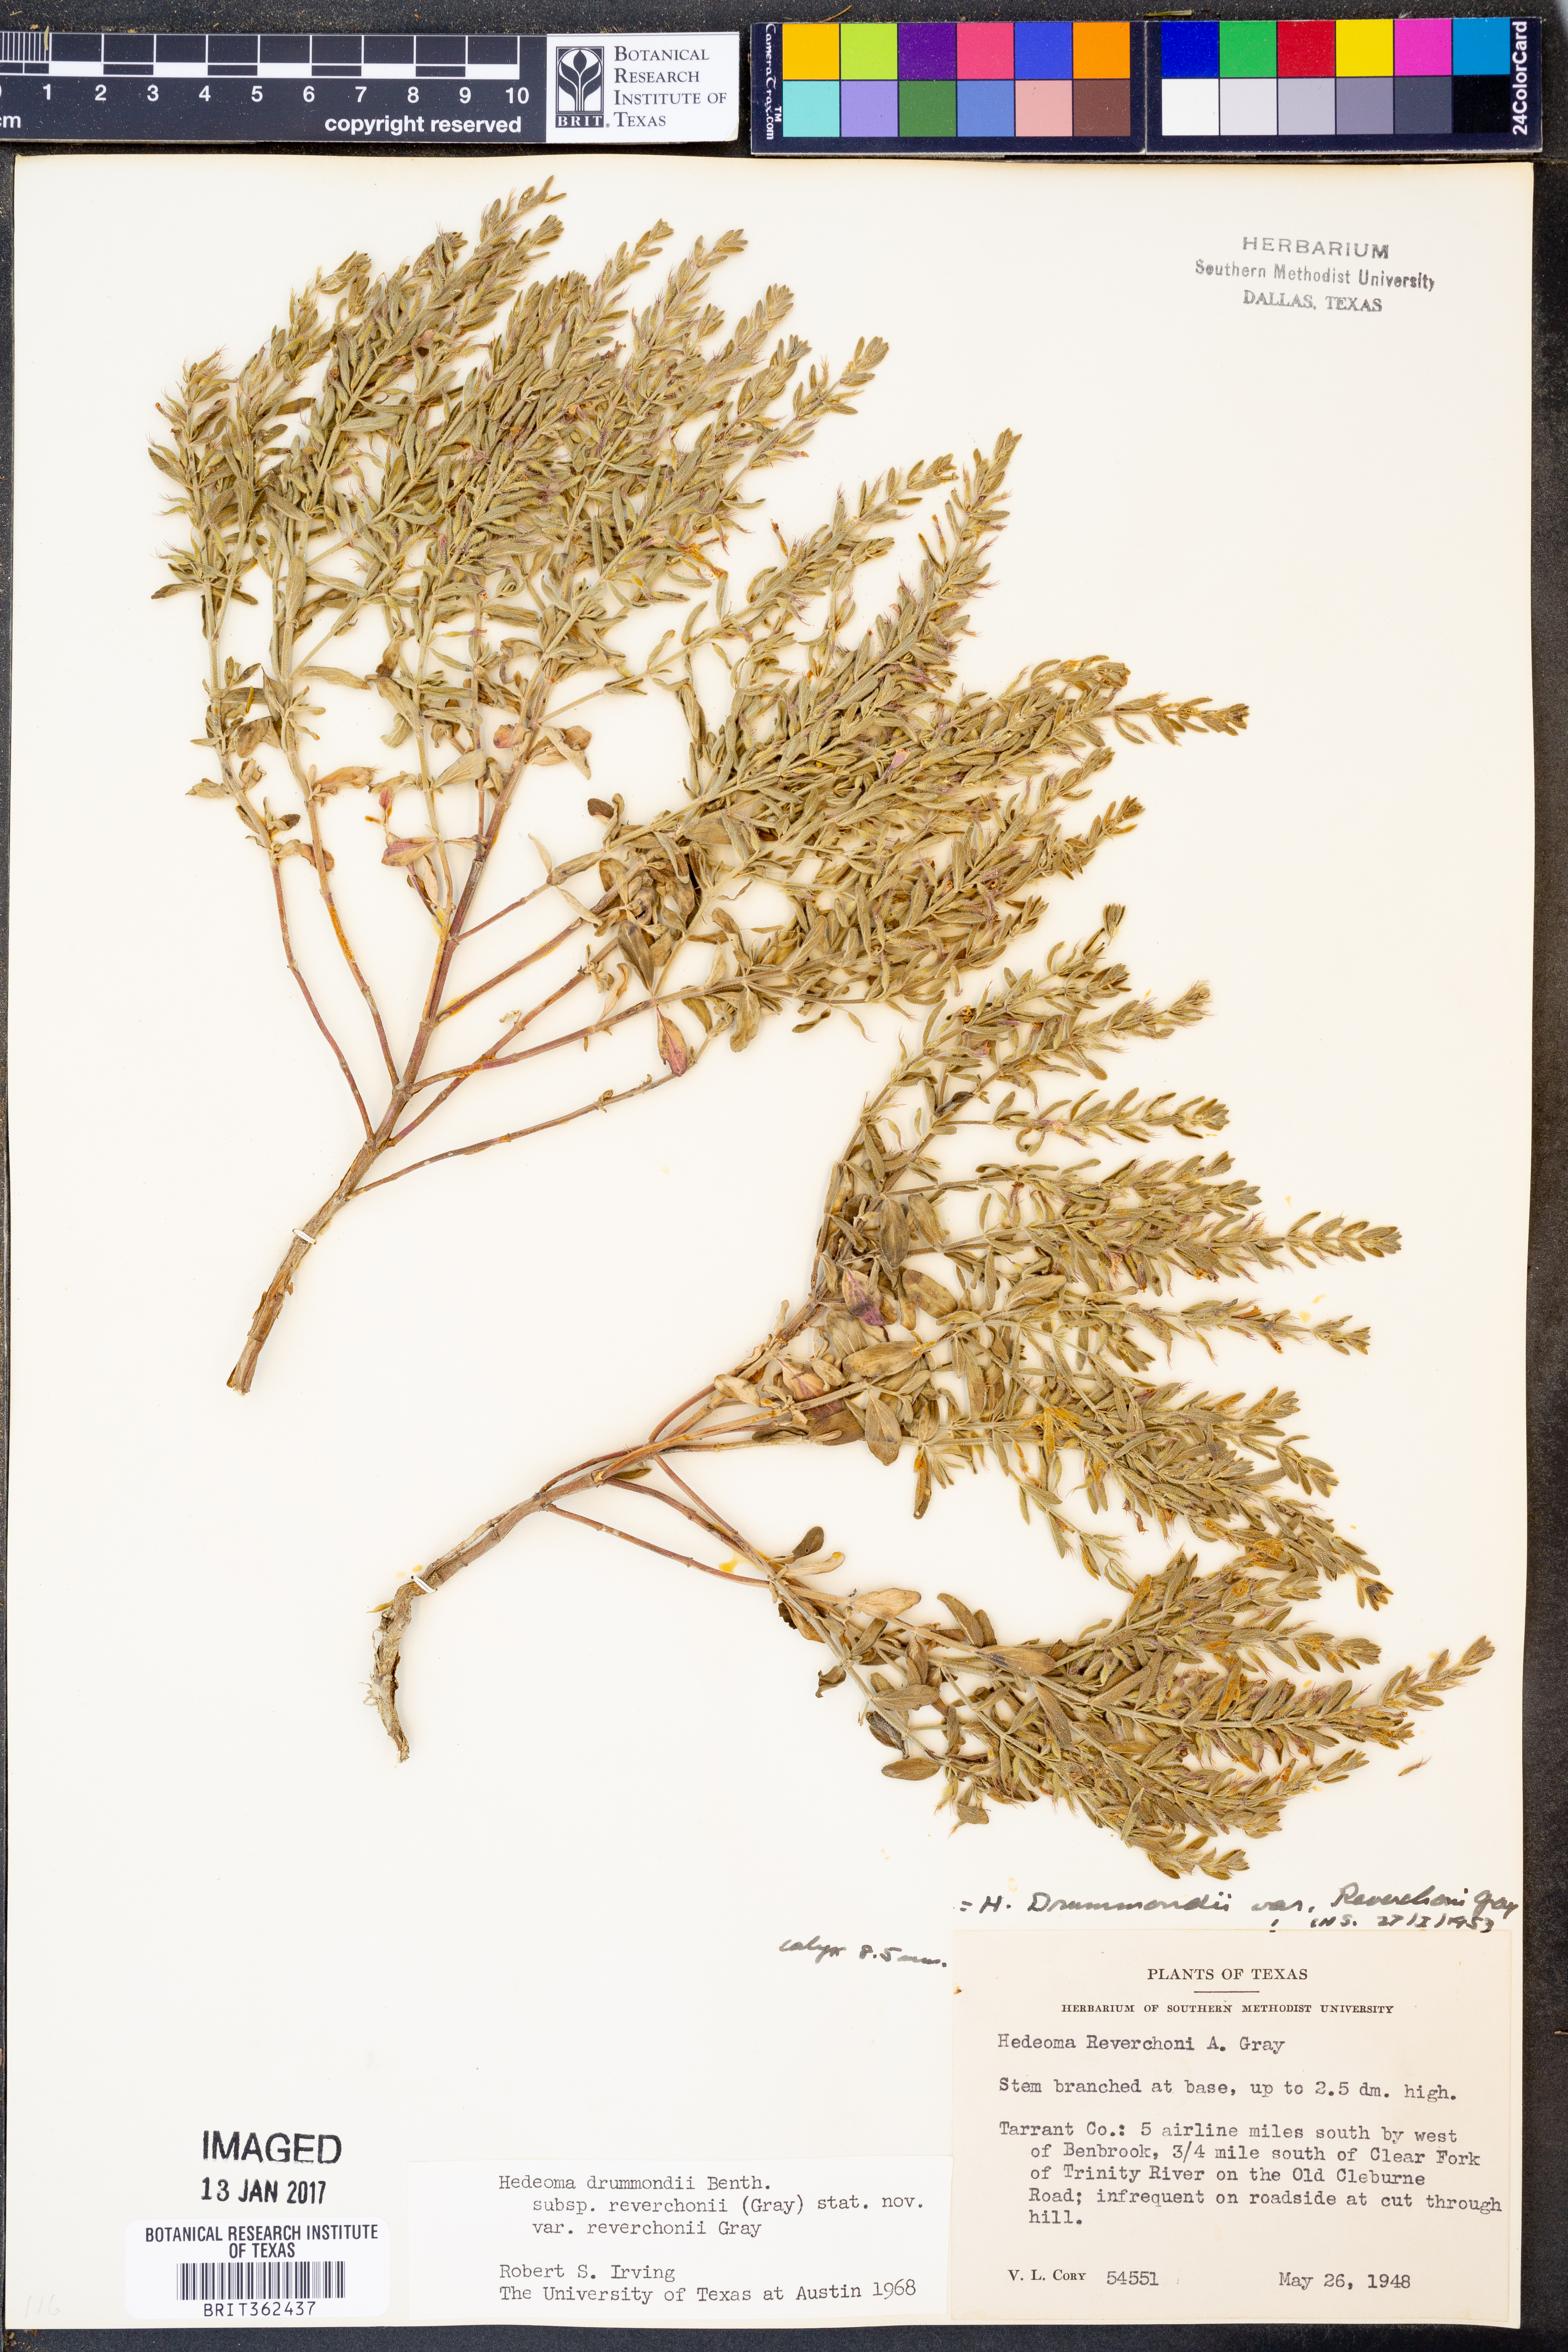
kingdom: Plantae
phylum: Tracheophyta
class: Magnoliopsida
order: Lamiales
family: Lamiaceae
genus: Hedeoma
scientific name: Hedeoma reverchonii
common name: Reverchon's false penny-royal
